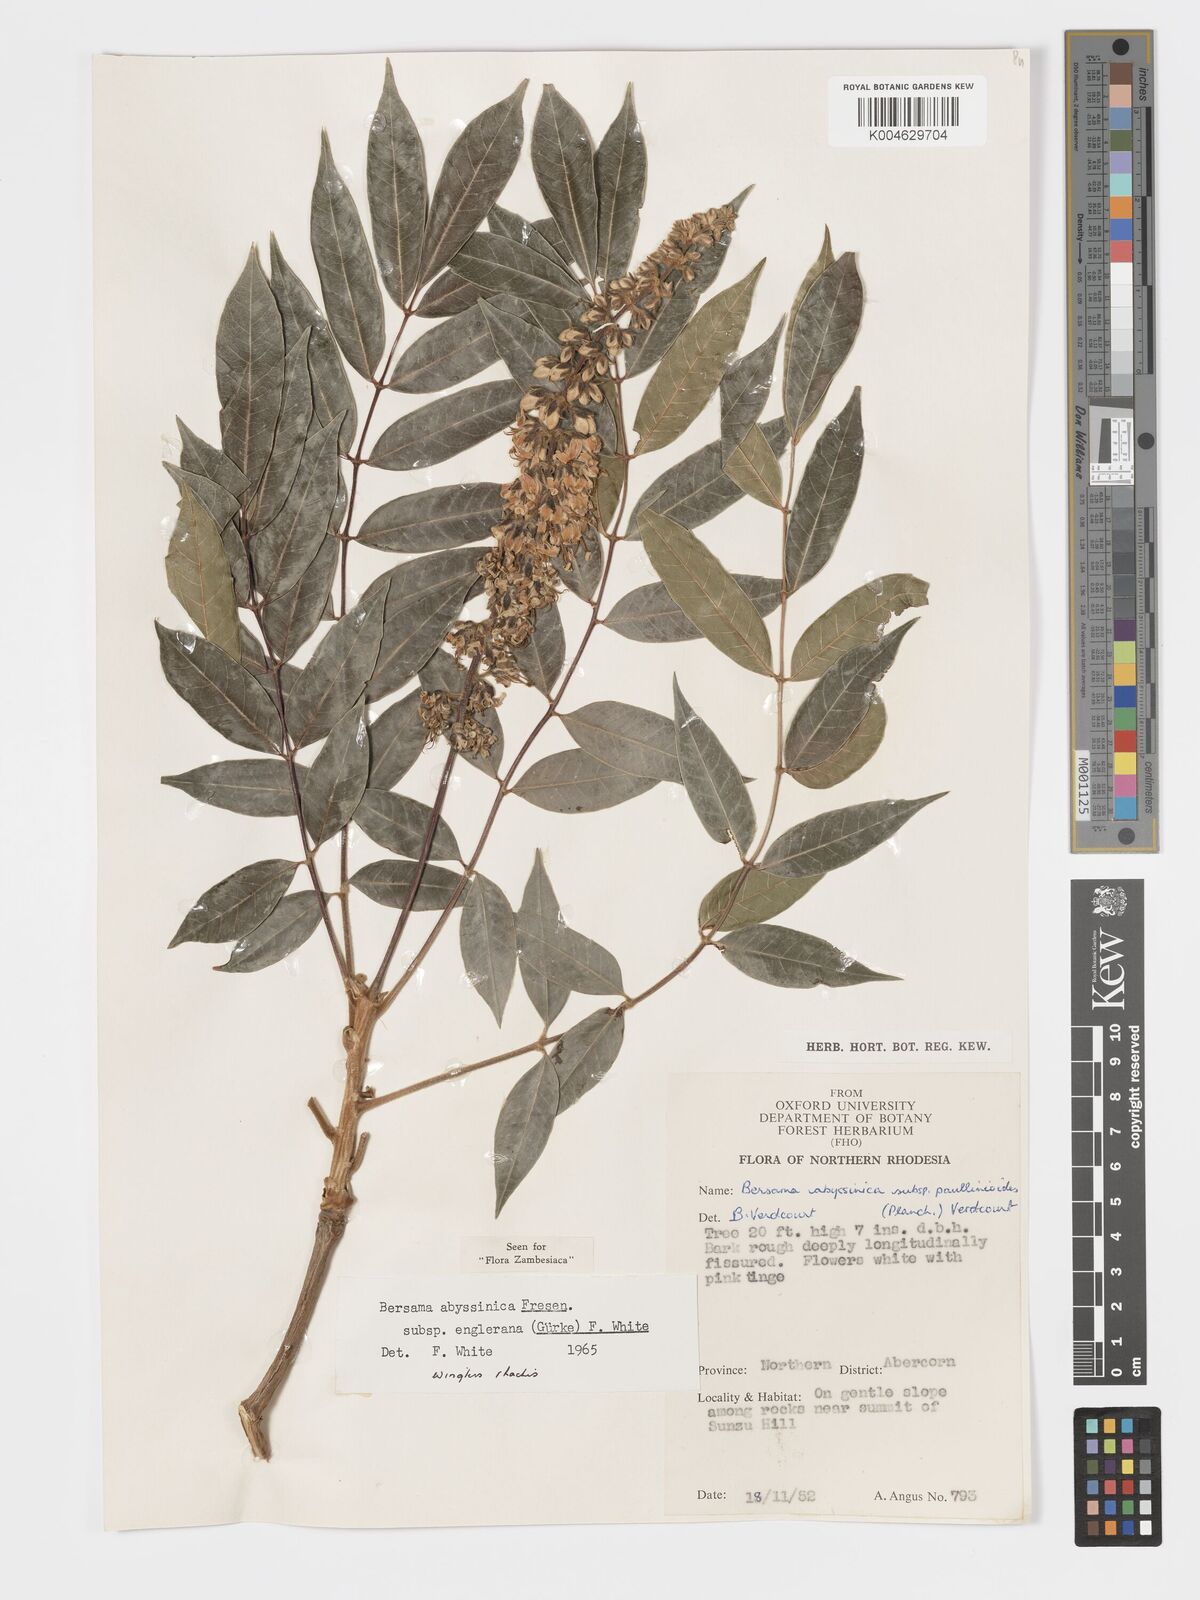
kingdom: Plantae
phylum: Tracheophyta
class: Magnoliopsida
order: Geraniales
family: Melianthaceae
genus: Bersama
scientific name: Bersama abyssinica
